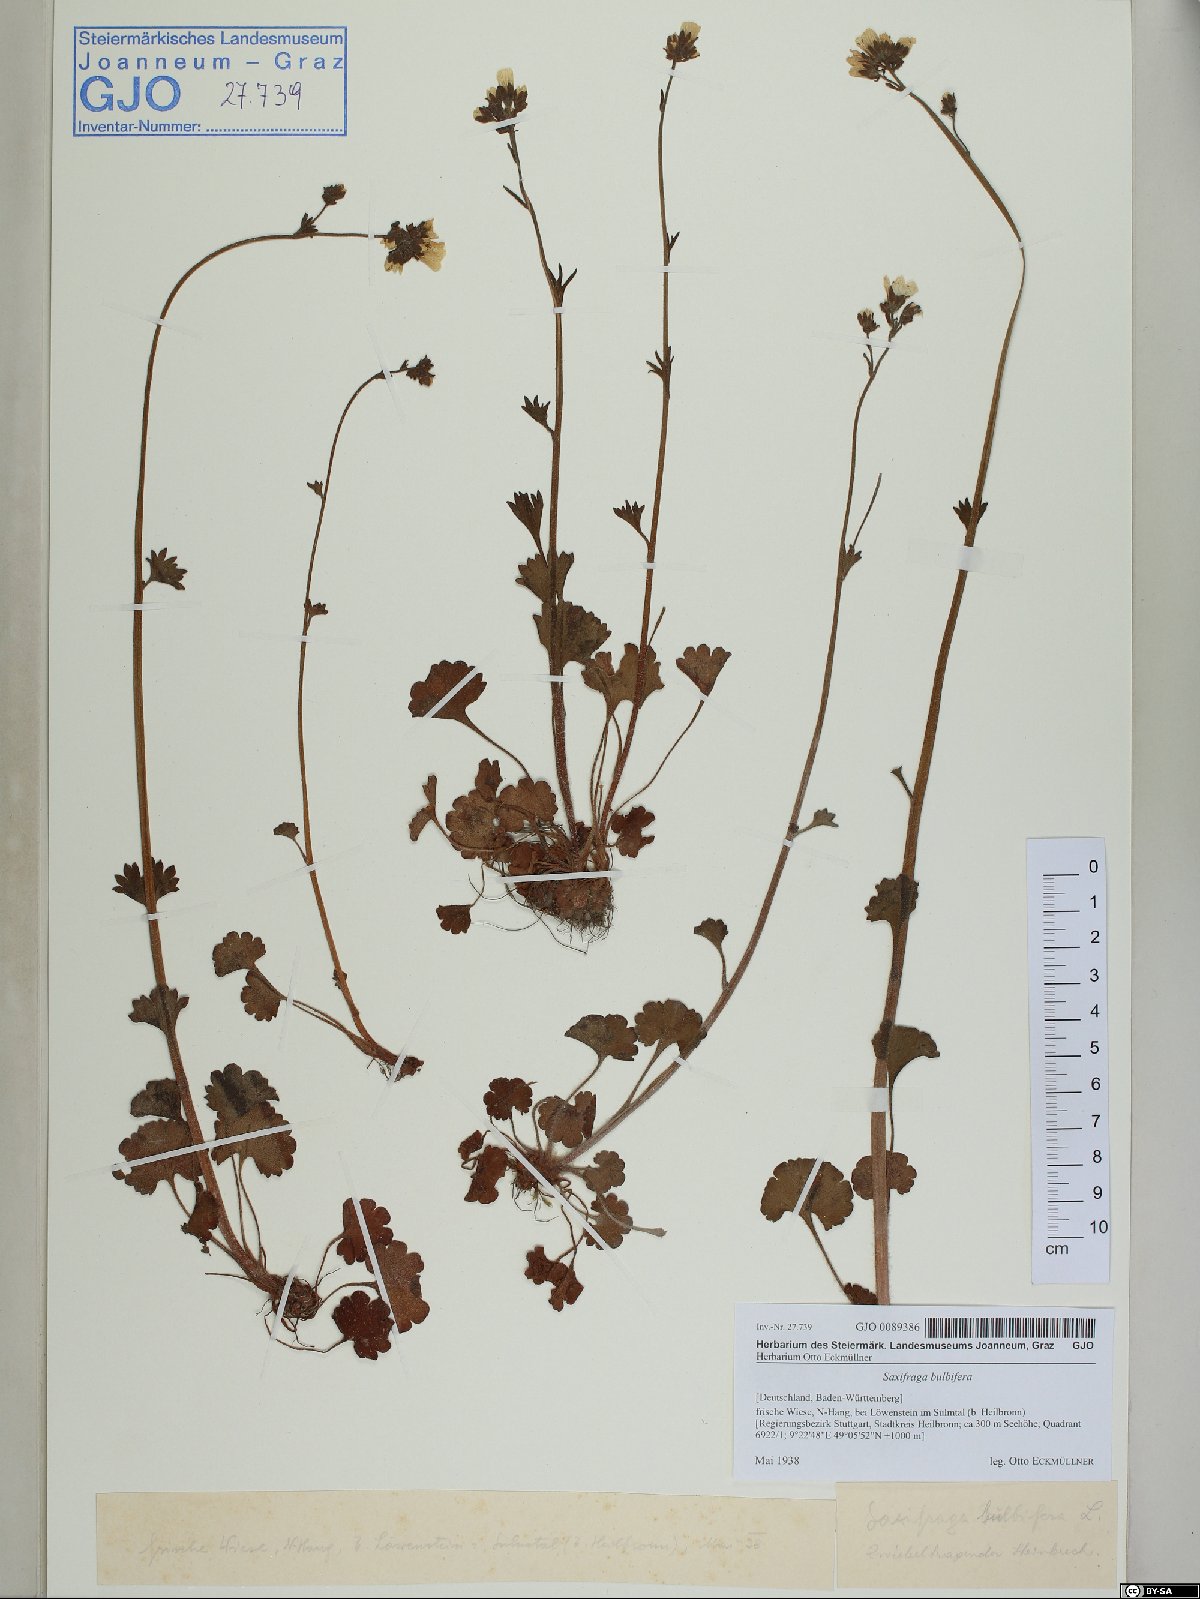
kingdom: Plantae
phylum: Tracheophyta
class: Magnoliopsida
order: Saxifragales
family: Saxifragaceae
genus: Saxifraga
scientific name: Saxifraga bulbifera
